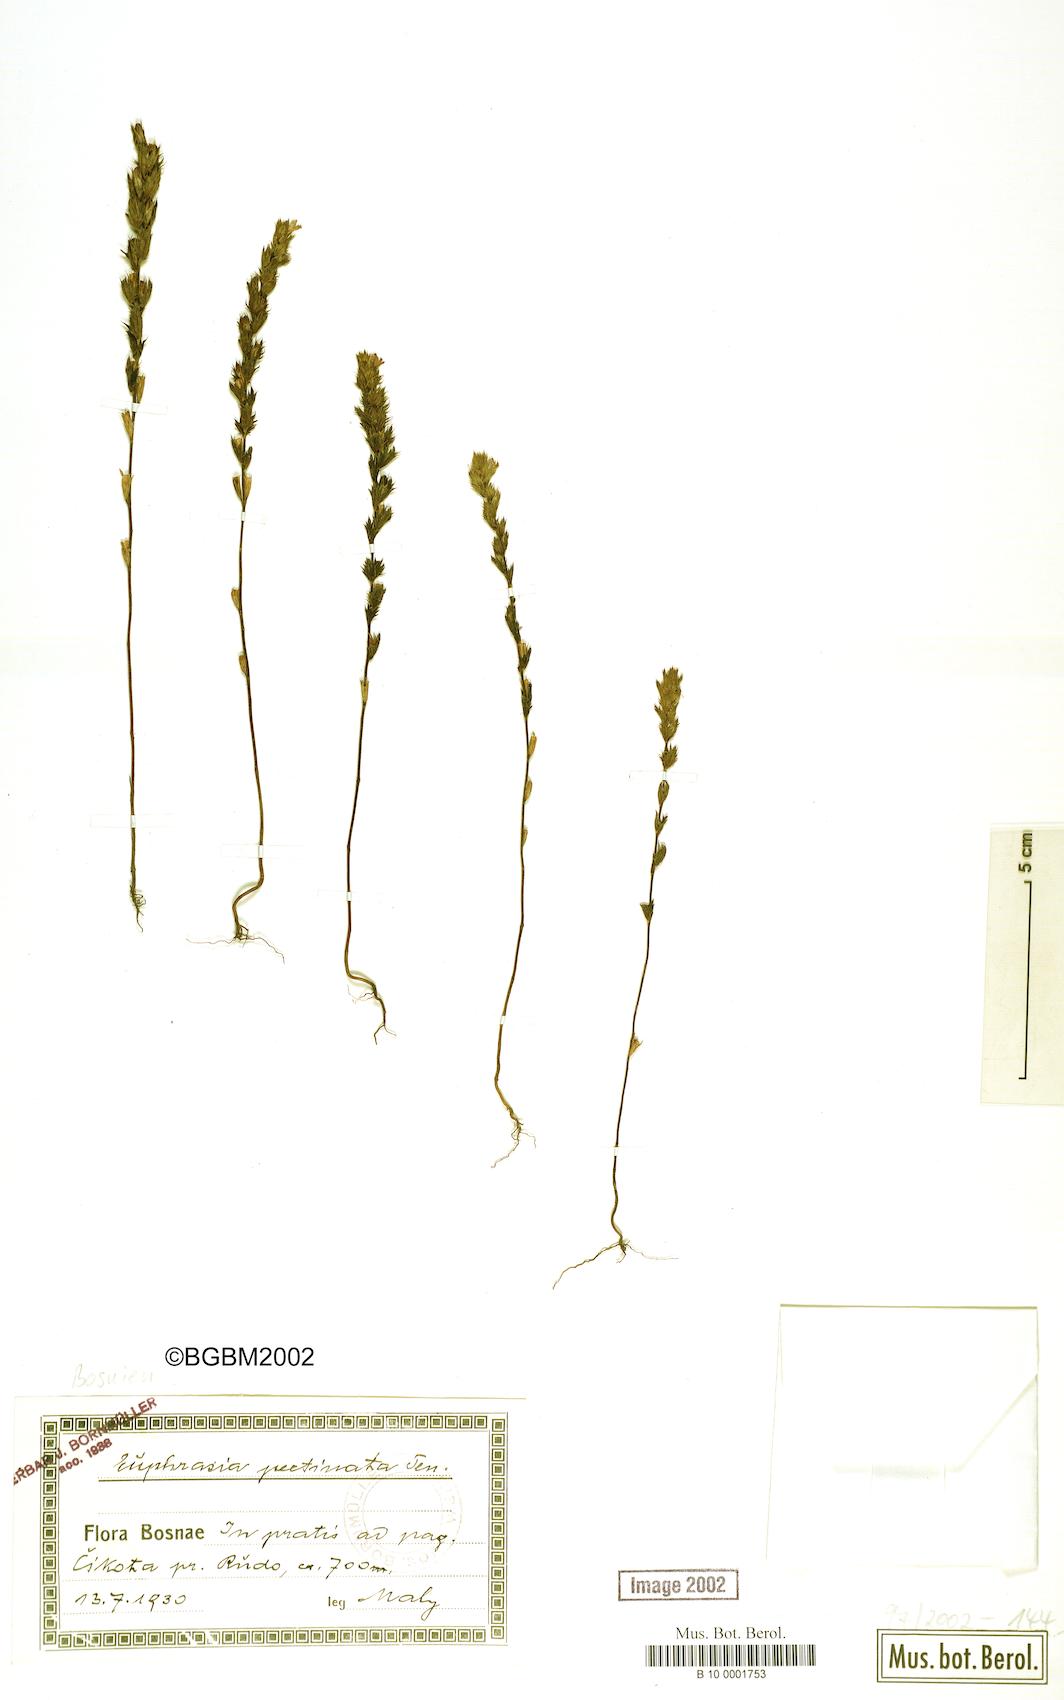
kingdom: Plantae
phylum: Tracheophyta
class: Magnoliopsida
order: Lamiales
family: Orobanchaceae
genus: Euphrasia
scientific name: Euphrasia pectinata
